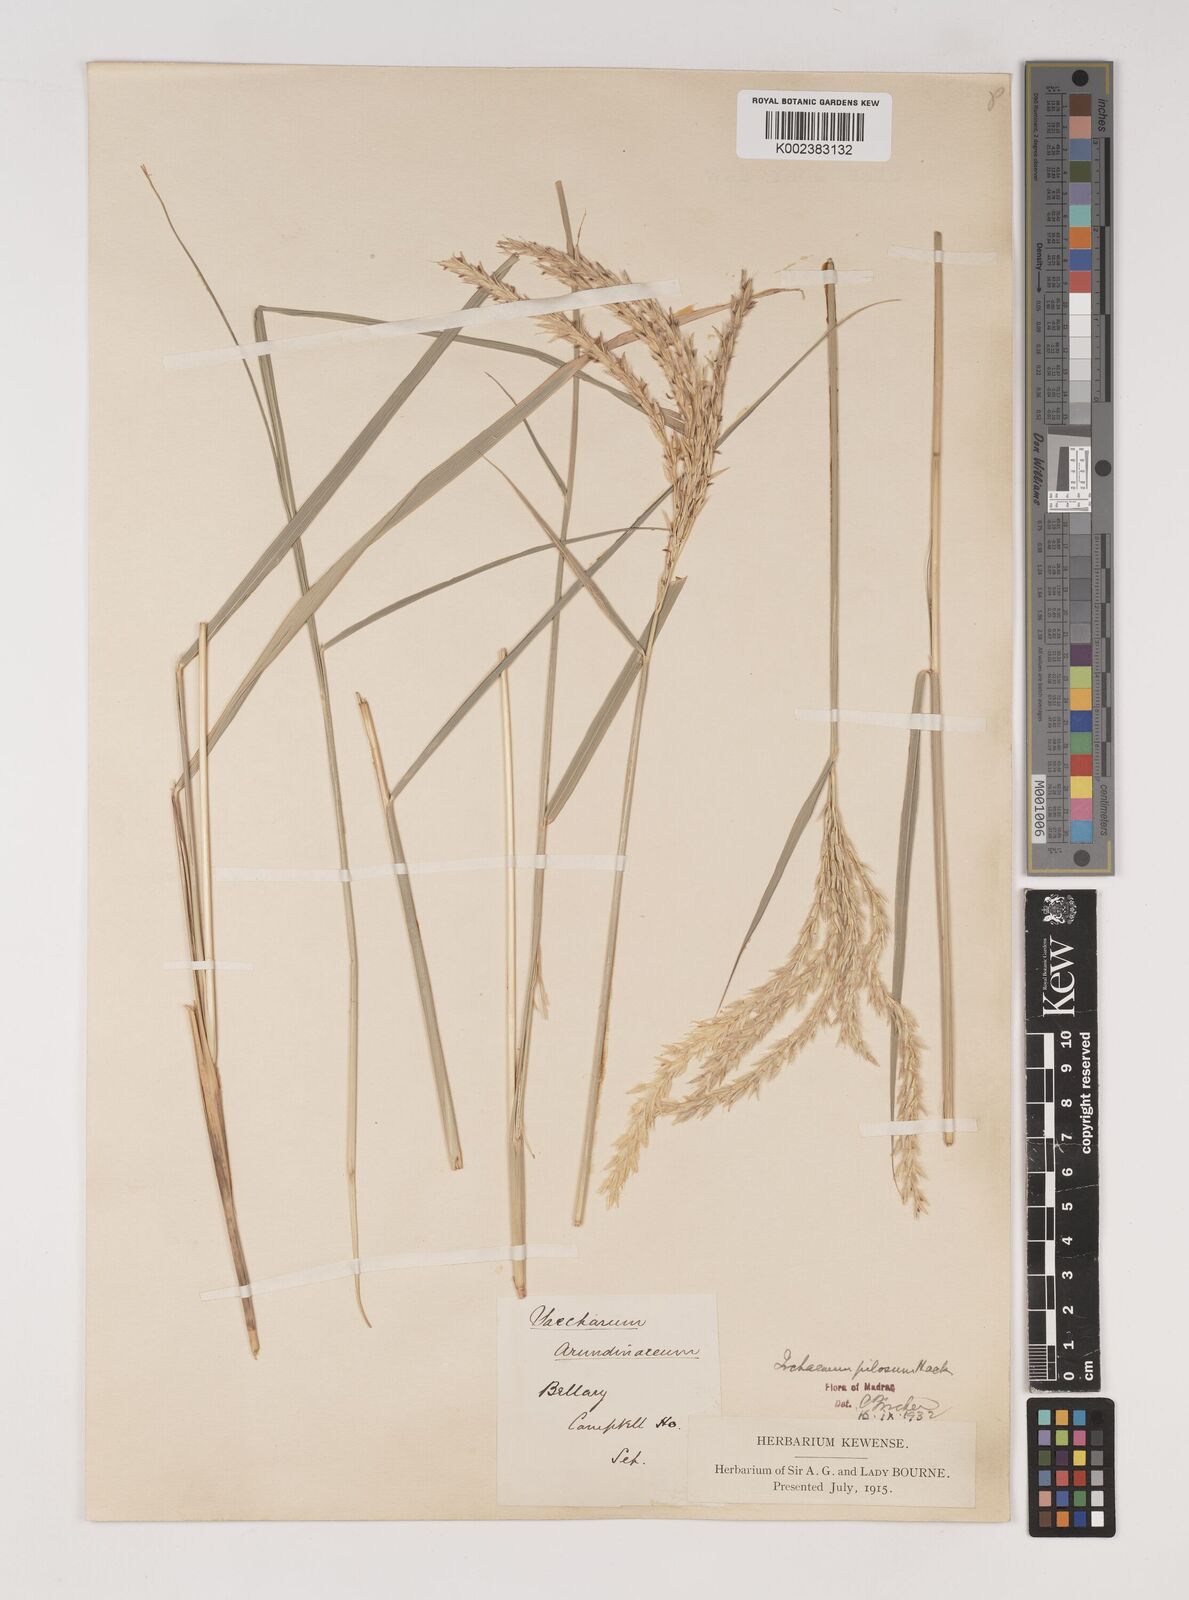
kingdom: Plantae
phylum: Tracheophyta
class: Liliopsida
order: Poales
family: Poaceae
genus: Ischaemum
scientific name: Ischaemum afrum
